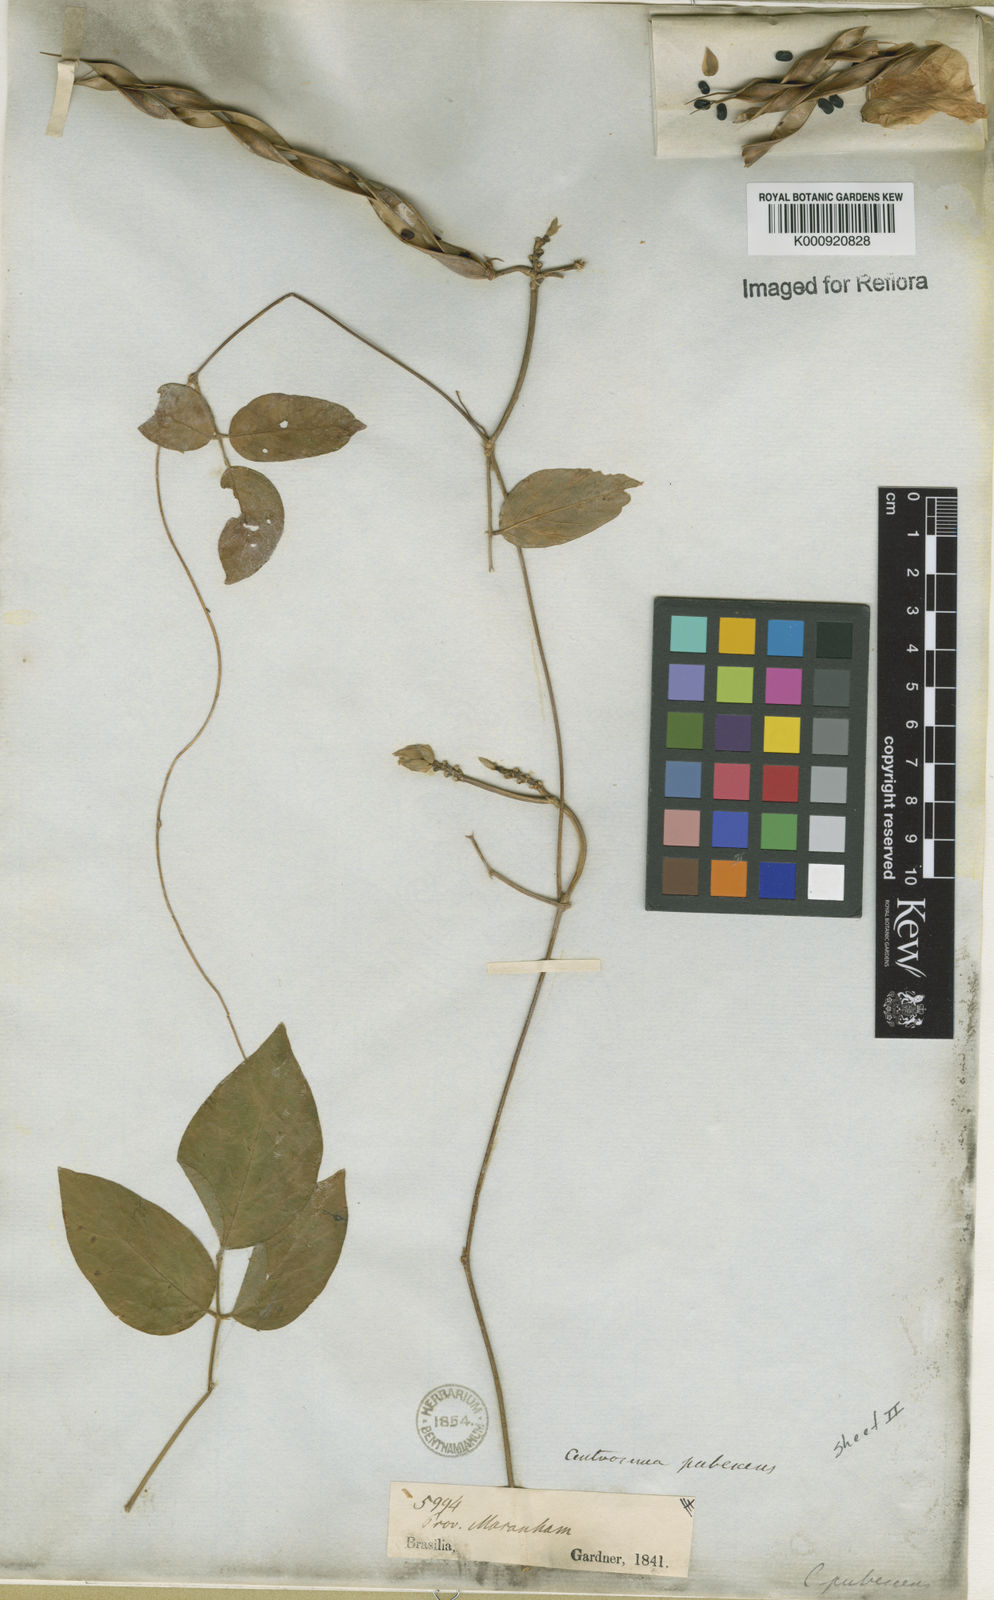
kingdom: Plantae
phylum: Tracheophyta
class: Magnoliopsida
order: Fabales
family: Fabaceae
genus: Centrosema
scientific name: Centrosema pubescens
